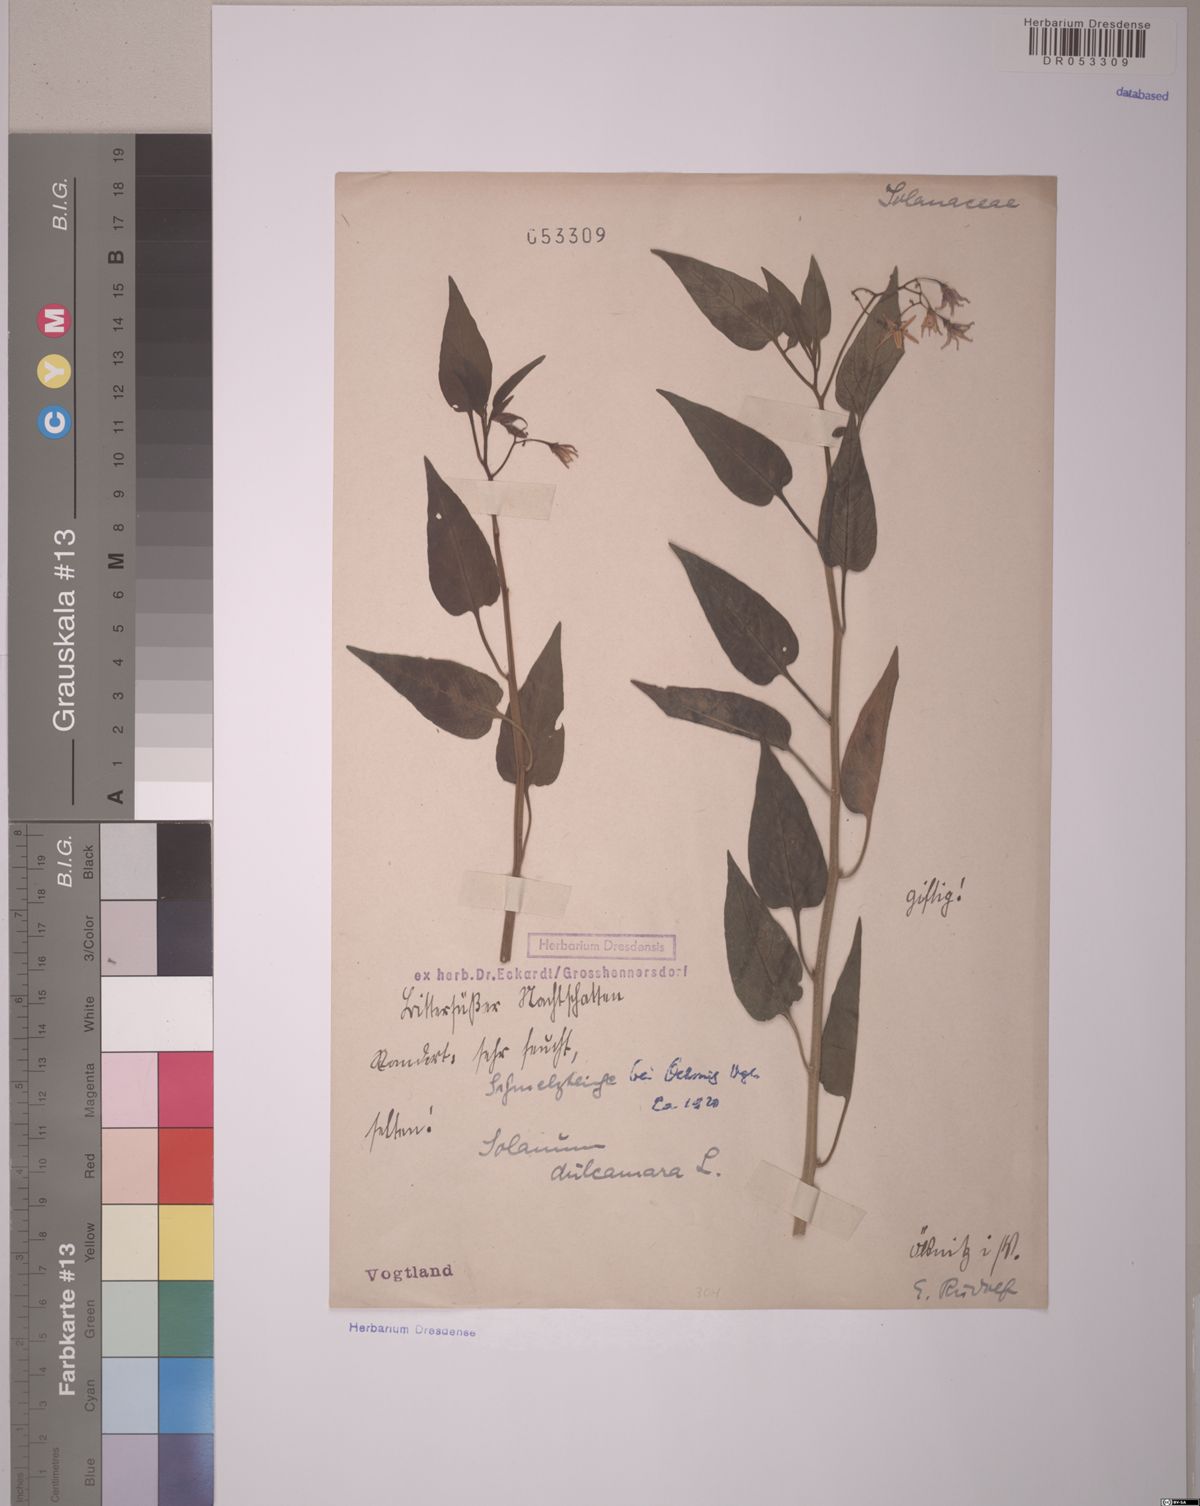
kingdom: Plantae
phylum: Tracheophyta
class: Magnoliopsida
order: Solanales
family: Solanaceae
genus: Solanum
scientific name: Solanum dulcamara
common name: Climbing nightshade
